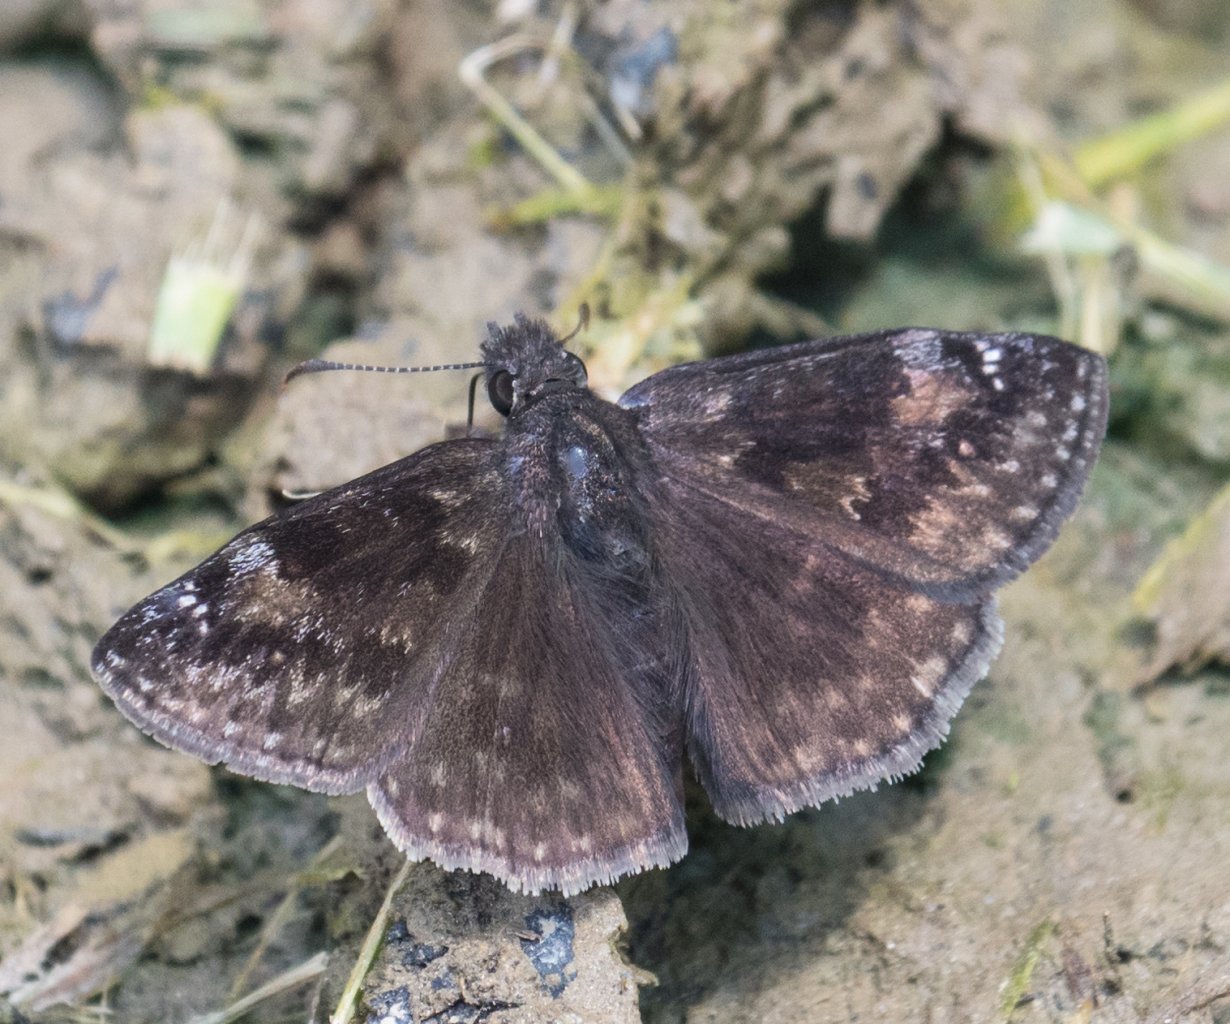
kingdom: Animalia
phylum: Arthropoda
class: Insecta
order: Lepidoptera
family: Hesperiidae
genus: Gesta
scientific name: Gesta
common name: Wild Indigo Duskywing
